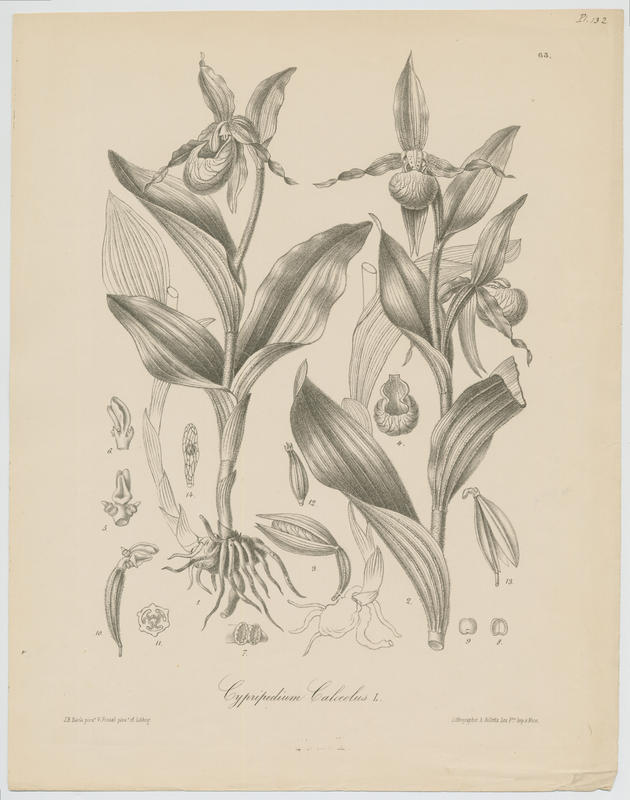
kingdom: Plantae
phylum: Tracheophyta
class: Liliopsida
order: Asparagales
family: Orchidaceae
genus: Cypripedium
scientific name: Cypripedium calceolus
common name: Lady's-slipper
